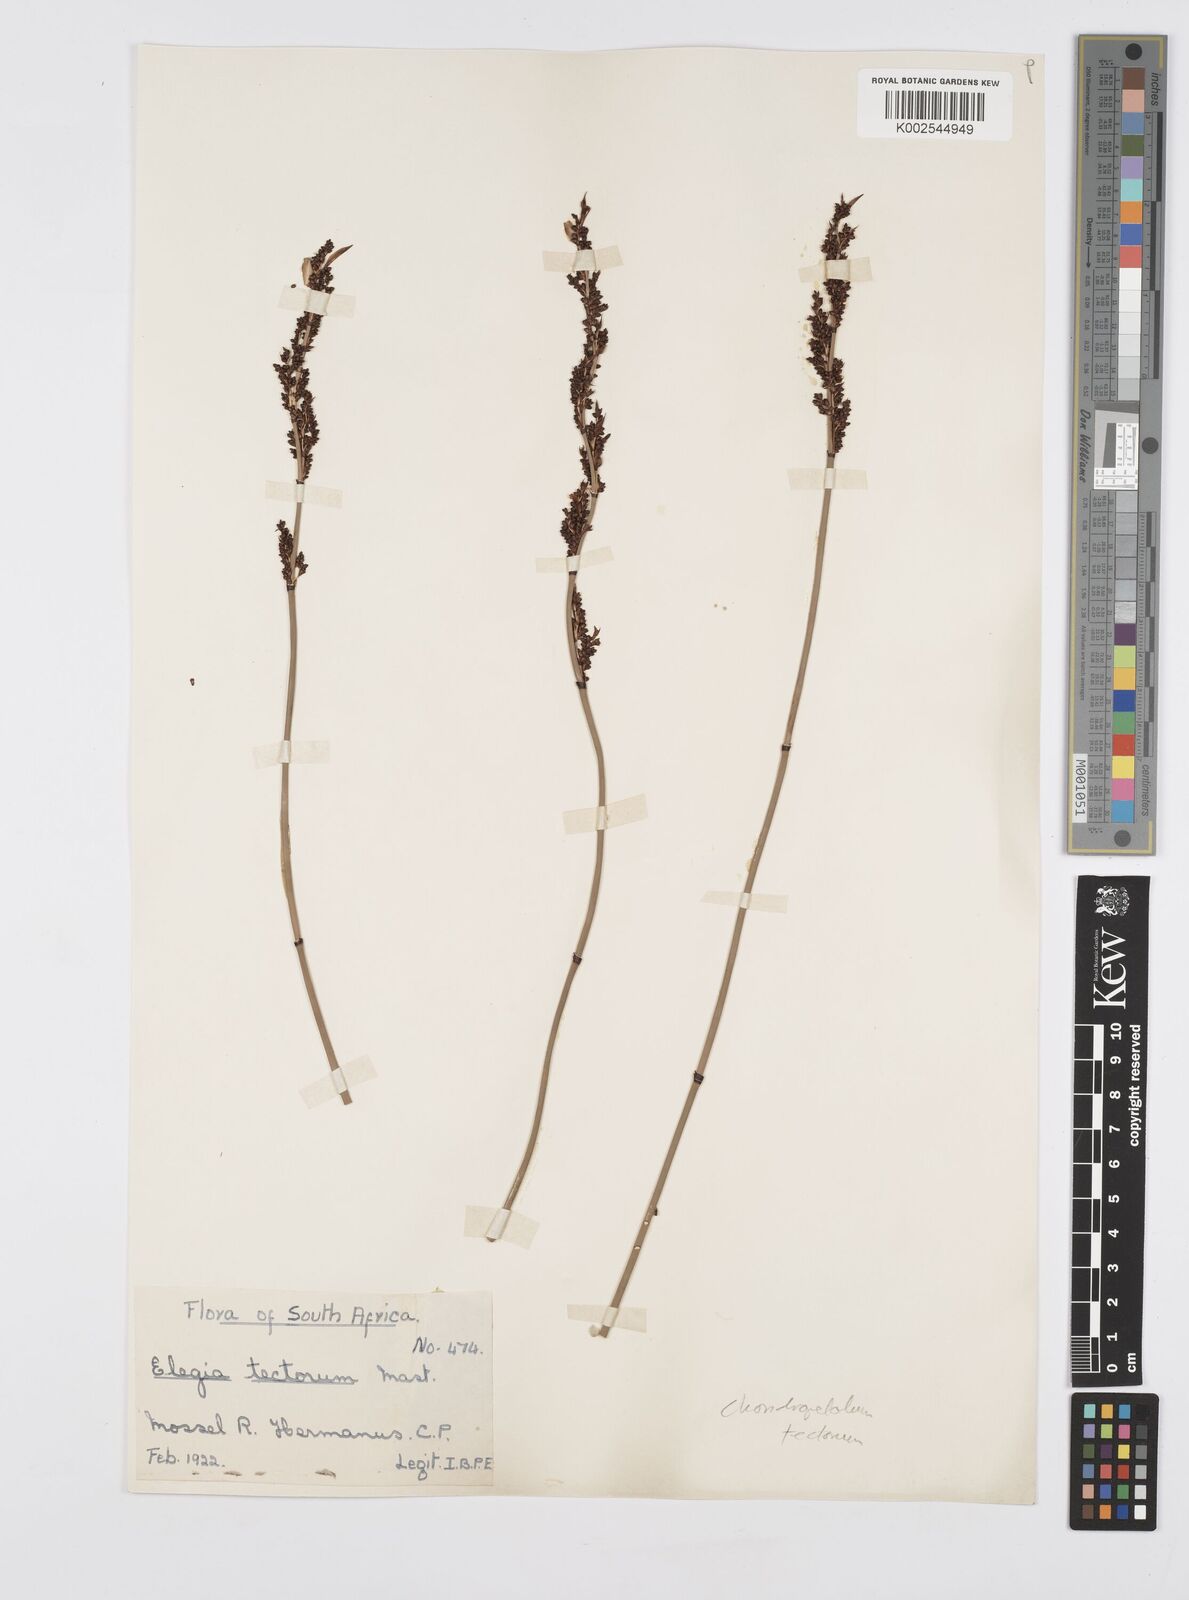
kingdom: Plantae
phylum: Tracheophyta
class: Liliopsida
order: Poales
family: Restionaceae
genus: Elegia
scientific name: Elegia tectorum
